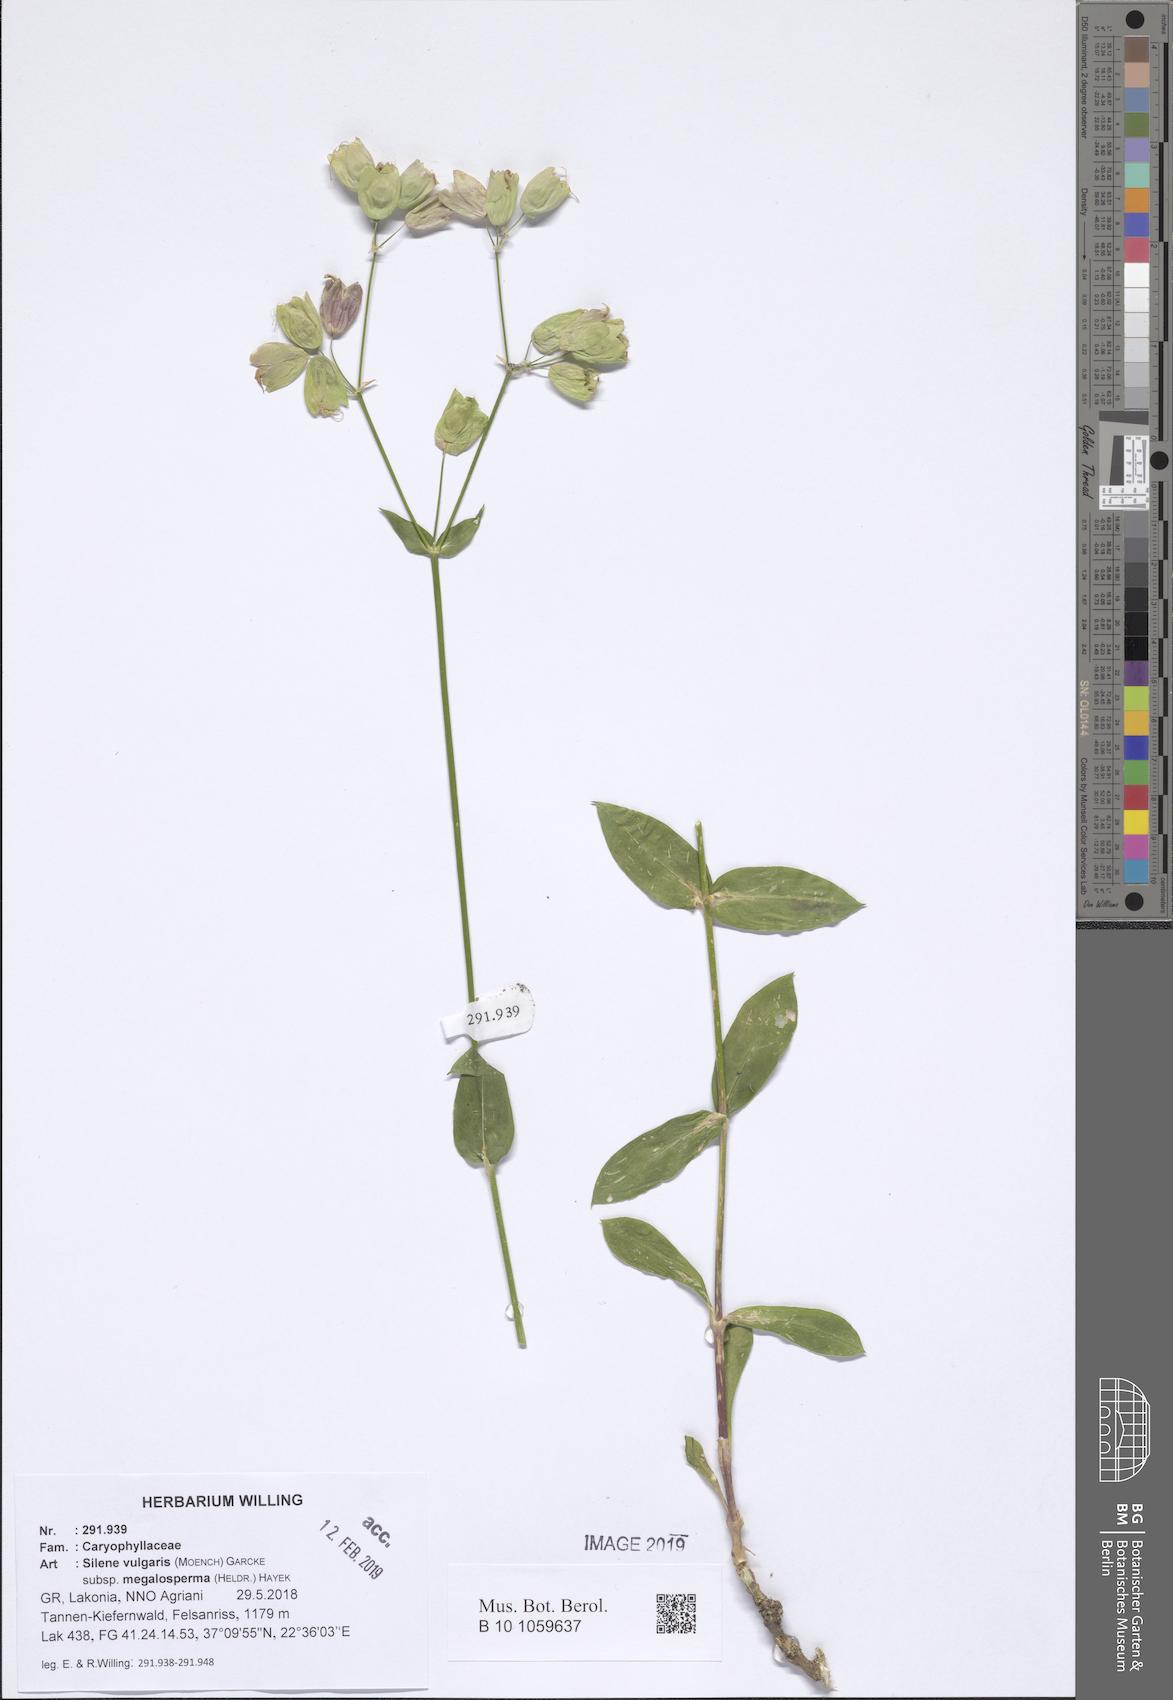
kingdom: Plantae
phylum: Tracheophyta
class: Magnoliopsida
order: Caryophyllales
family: Caryophyllaceae
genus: Silene
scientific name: Silene vulgaris
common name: Bladder campion
